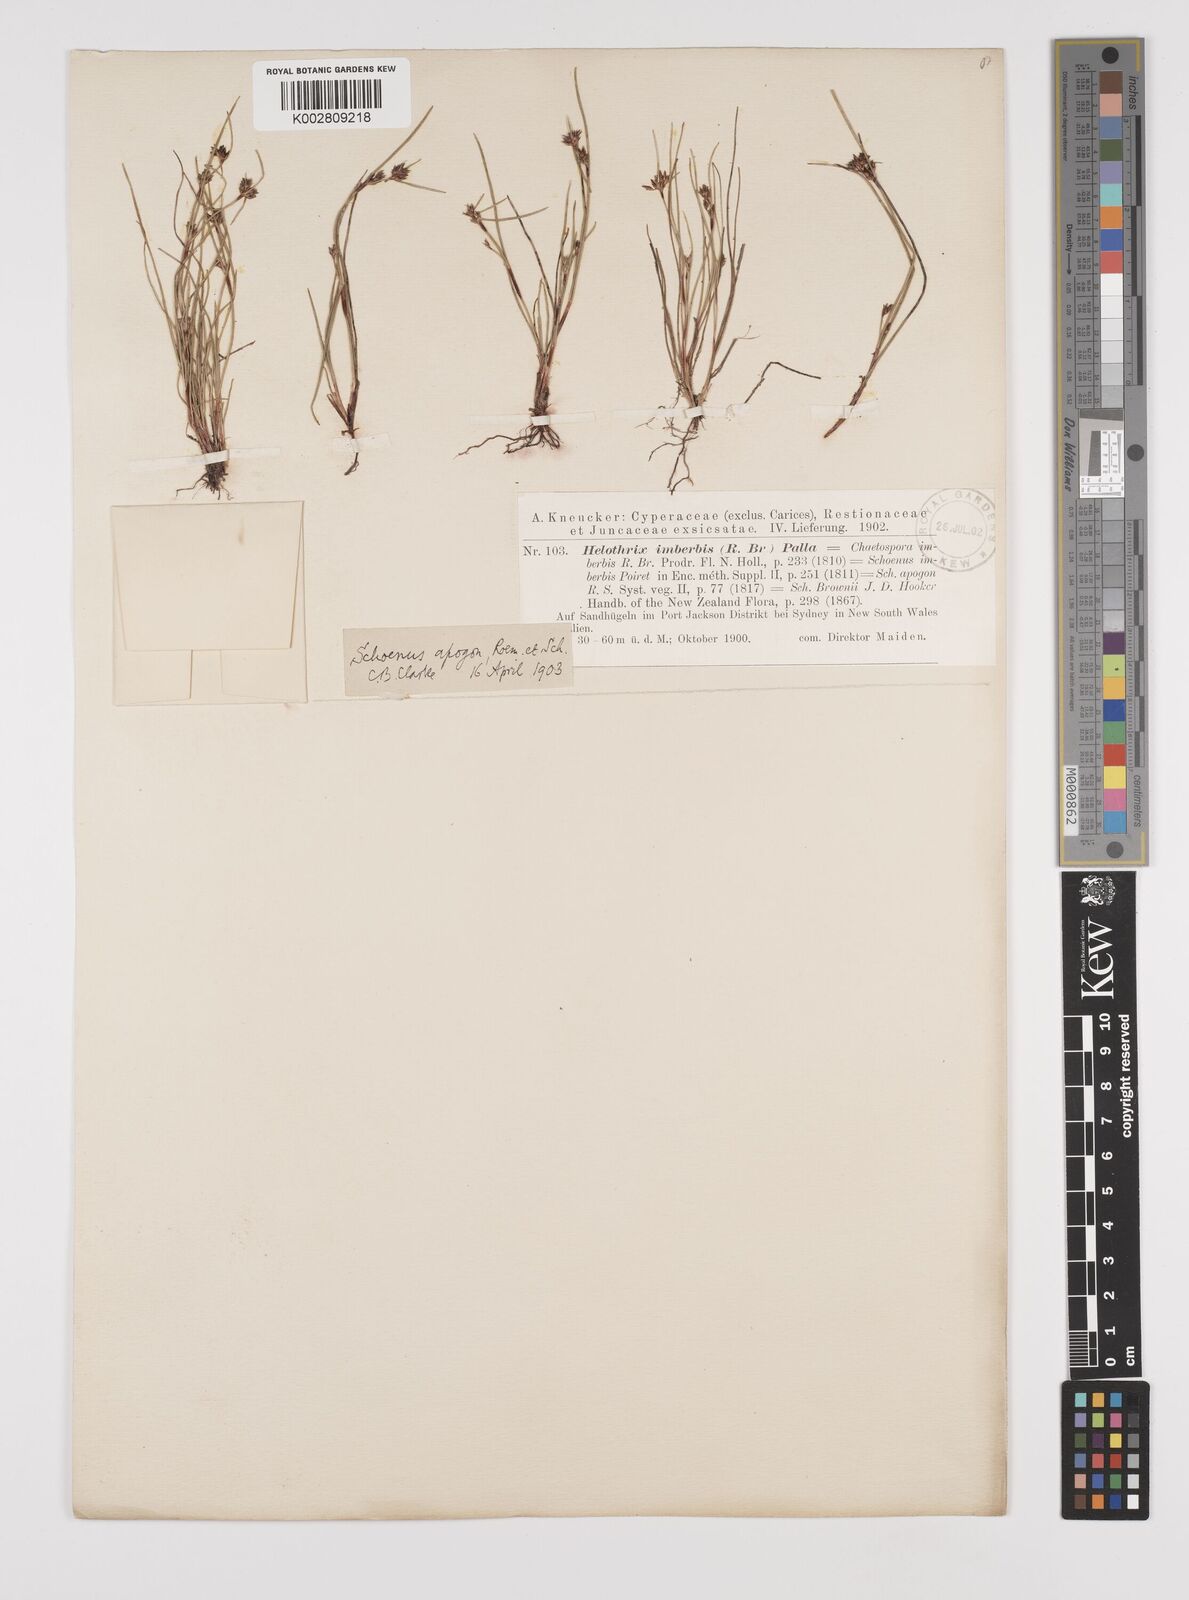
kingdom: Plantae
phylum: Tracheophyta
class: Liliopsida
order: Poales
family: Cyperaceae
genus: Schoenus
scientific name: Schoenus apogon
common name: Smooth bogrush
